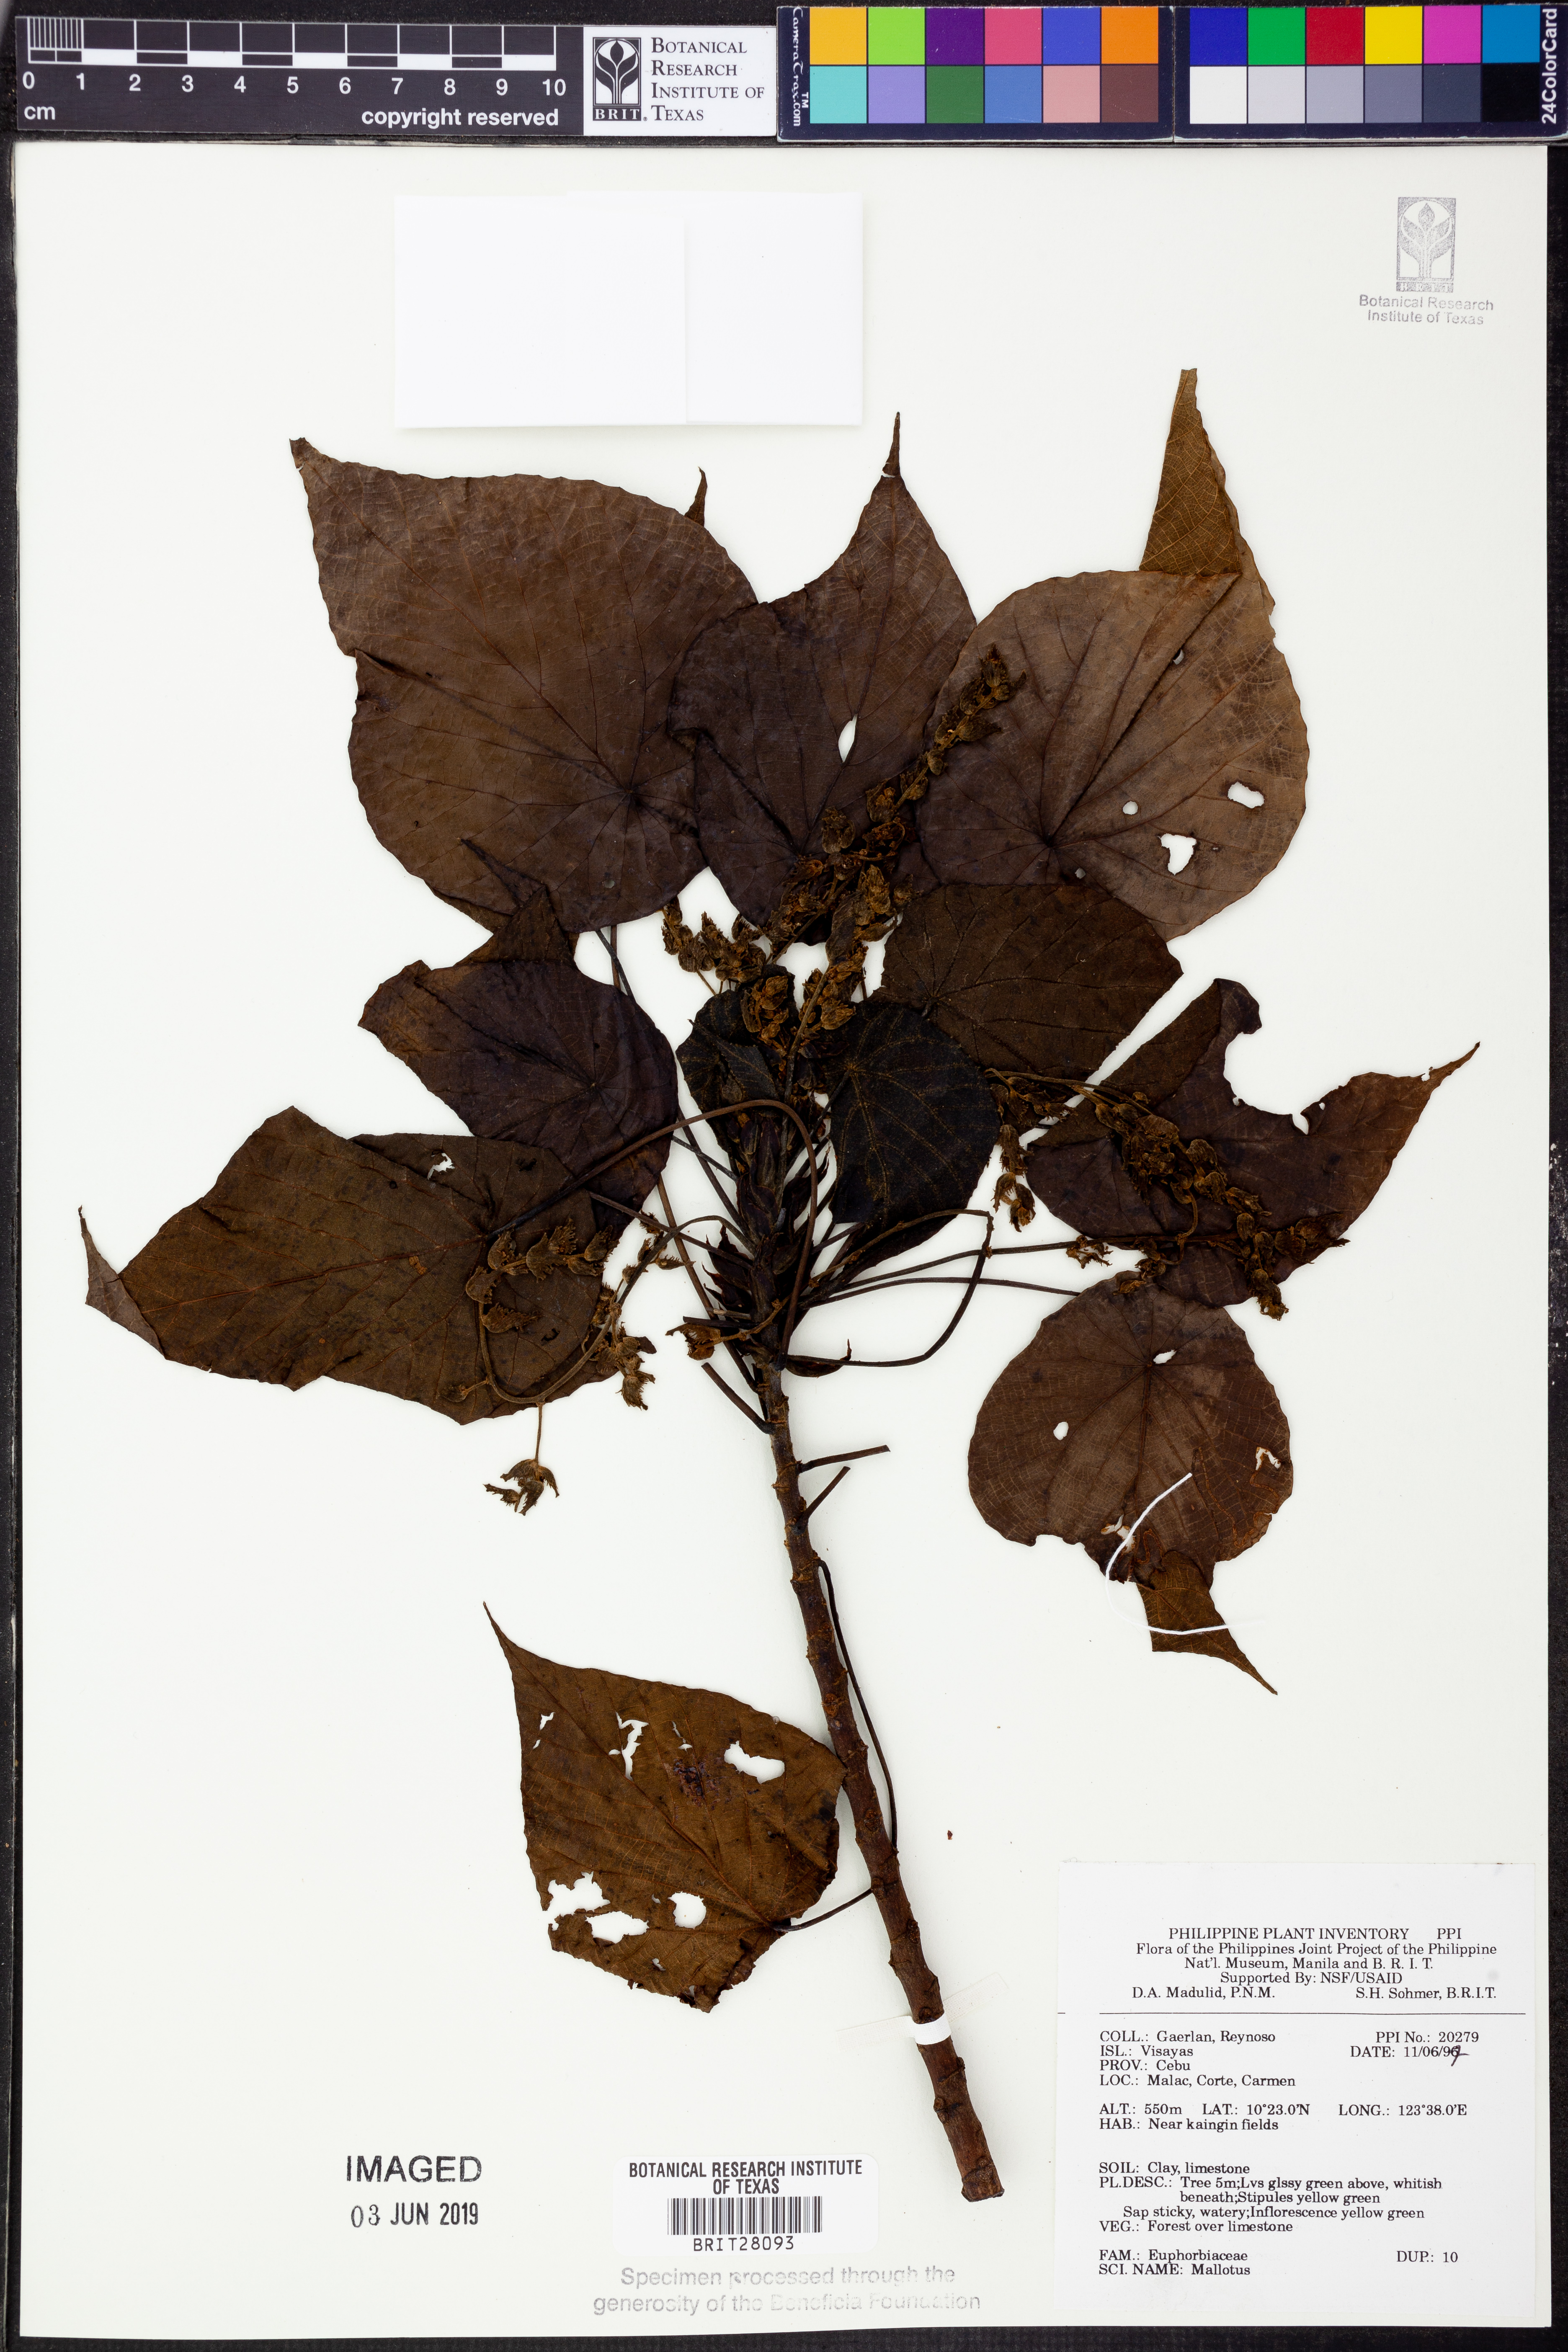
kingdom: Plantae
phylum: Tracheophyta
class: Magnoliopsida
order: Malpighiales
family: Euphorbiaceae
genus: Mallotus
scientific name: Mallotus
